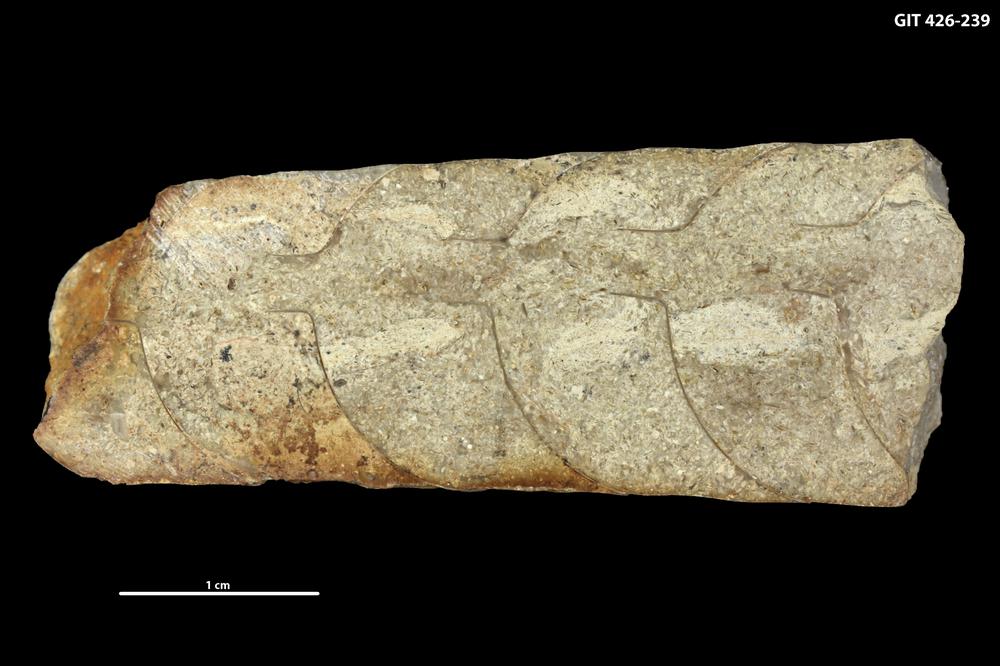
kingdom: Animalia
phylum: Mollusca
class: Cephalopoda
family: Lituitidae
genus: Lituites
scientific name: Lituites
